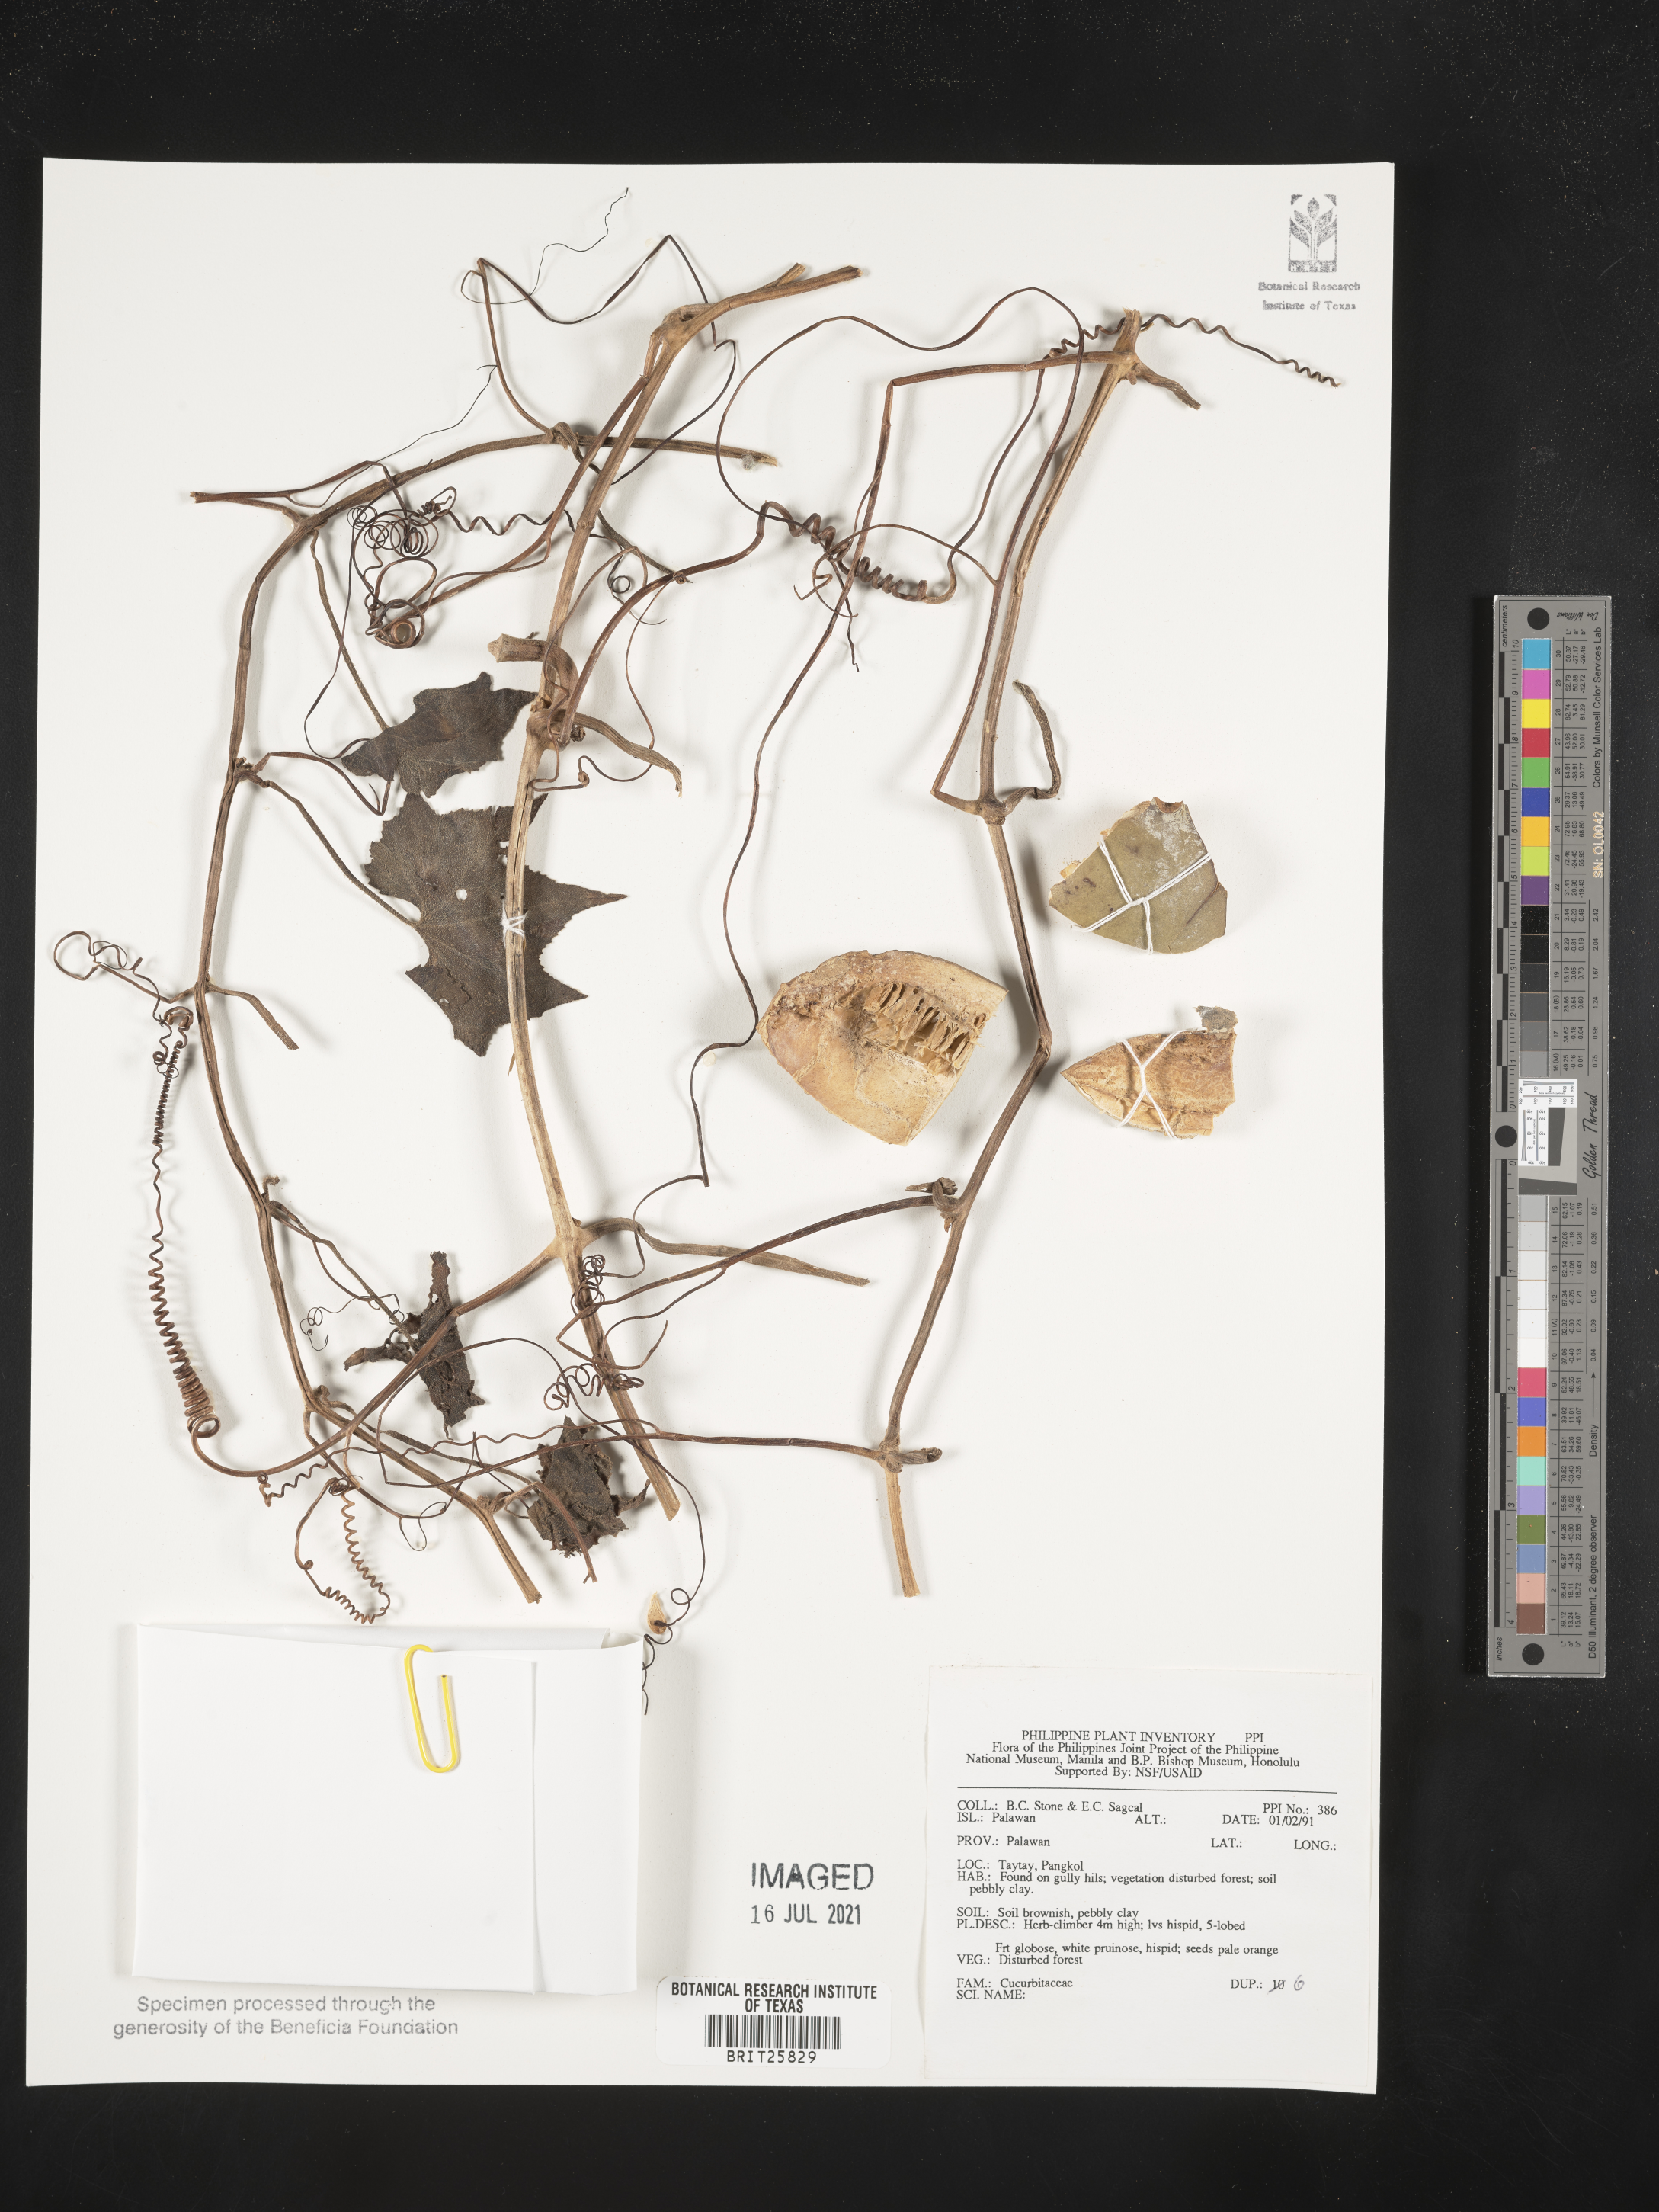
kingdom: Plantae
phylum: Tracheophyta
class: Magnoliopsida
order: Cucurbitales
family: Cucurbitaceae
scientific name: Cucurbitaceae
